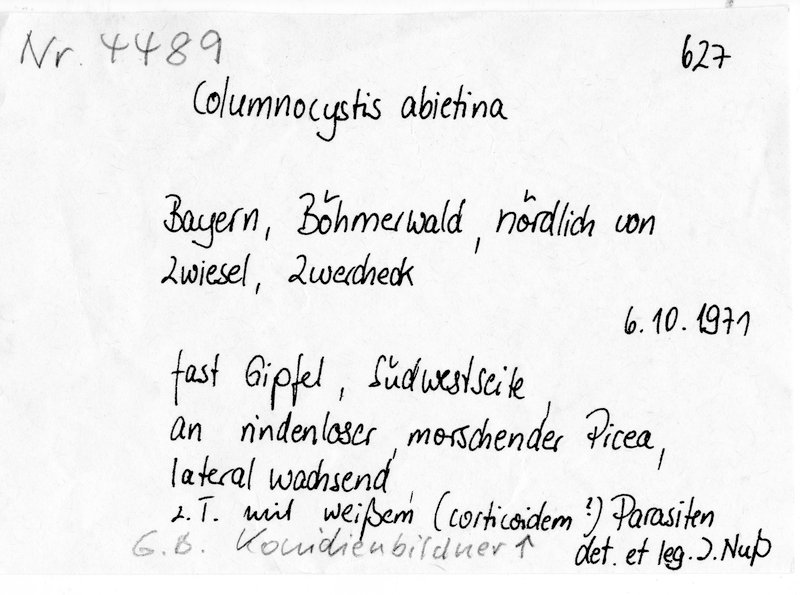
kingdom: Fungi
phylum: Basidiomycota
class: Agaricomycetes
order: Gloeophyllales
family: Gloeophyllaceae
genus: Veluticeps
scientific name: Veluticeps abietina
